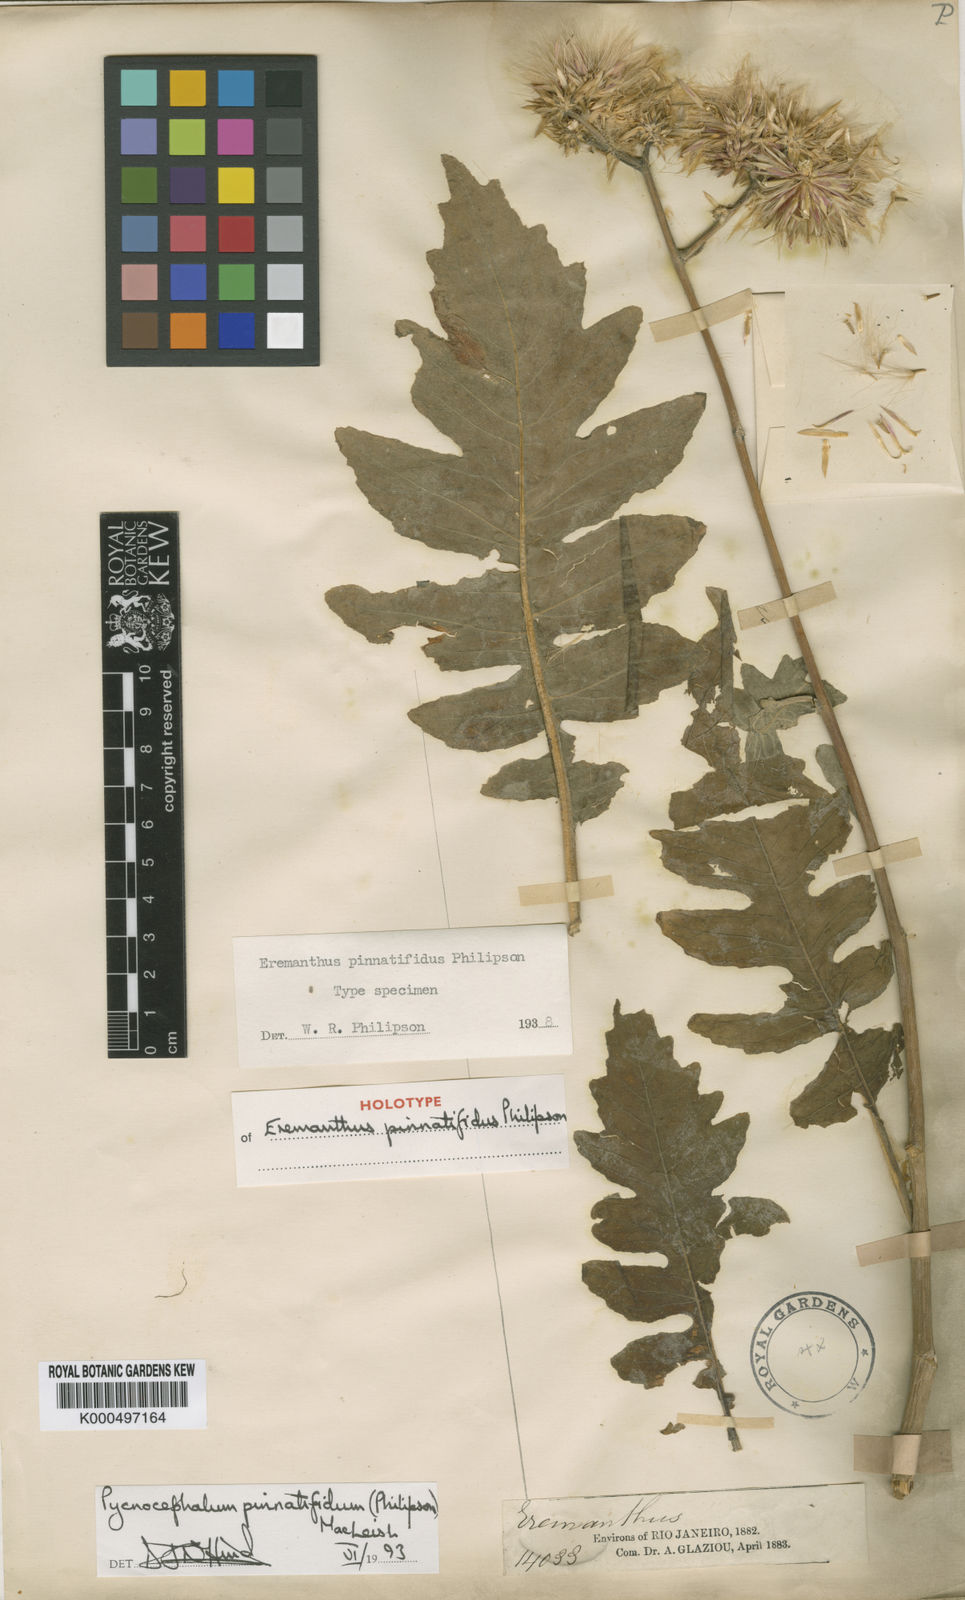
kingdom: Plantae
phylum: Tracheophyta
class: Magnoliopsida
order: Asterales
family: Asteraceae
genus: Chresta
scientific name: Chresta pinnatifida
